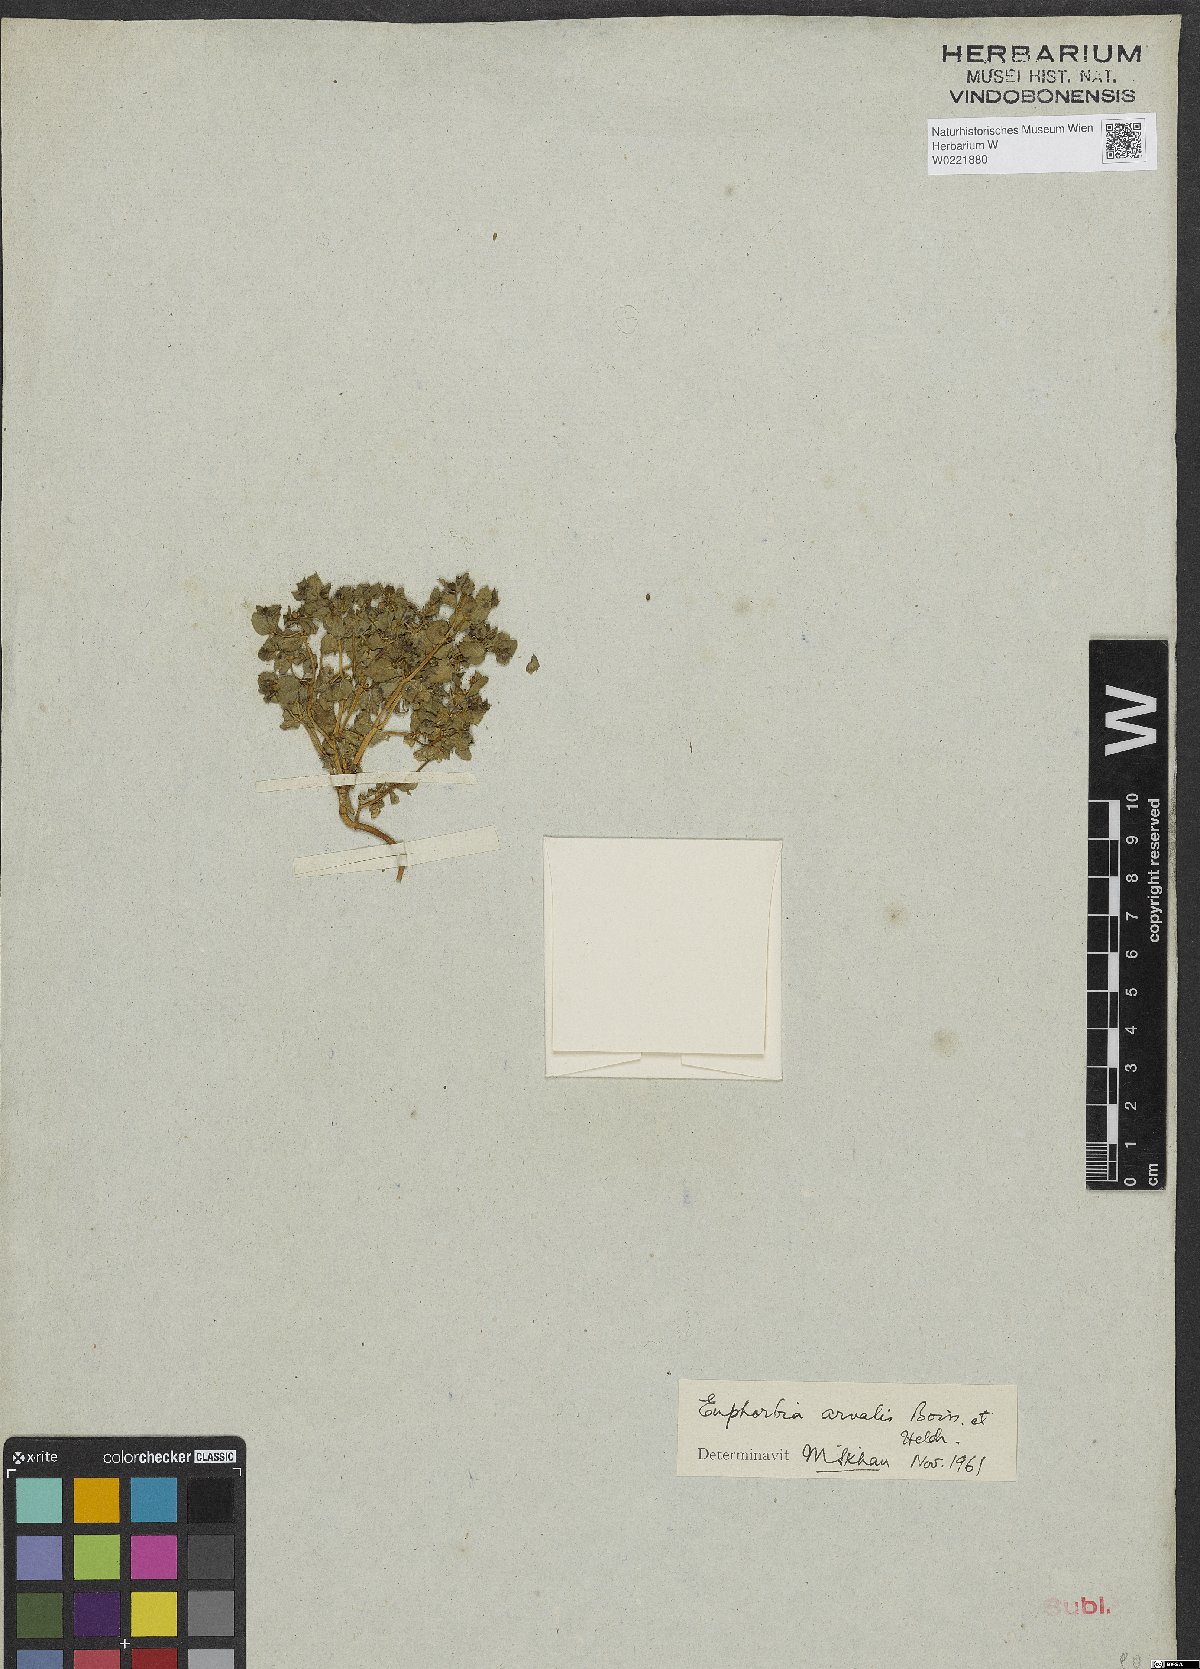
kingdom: Plantae
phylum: Tracheophyta
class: Magnoliopsida
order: Malpighiales
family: Euphorbiaceae
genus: Euphorbia
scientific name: Euphorbia arvalis
